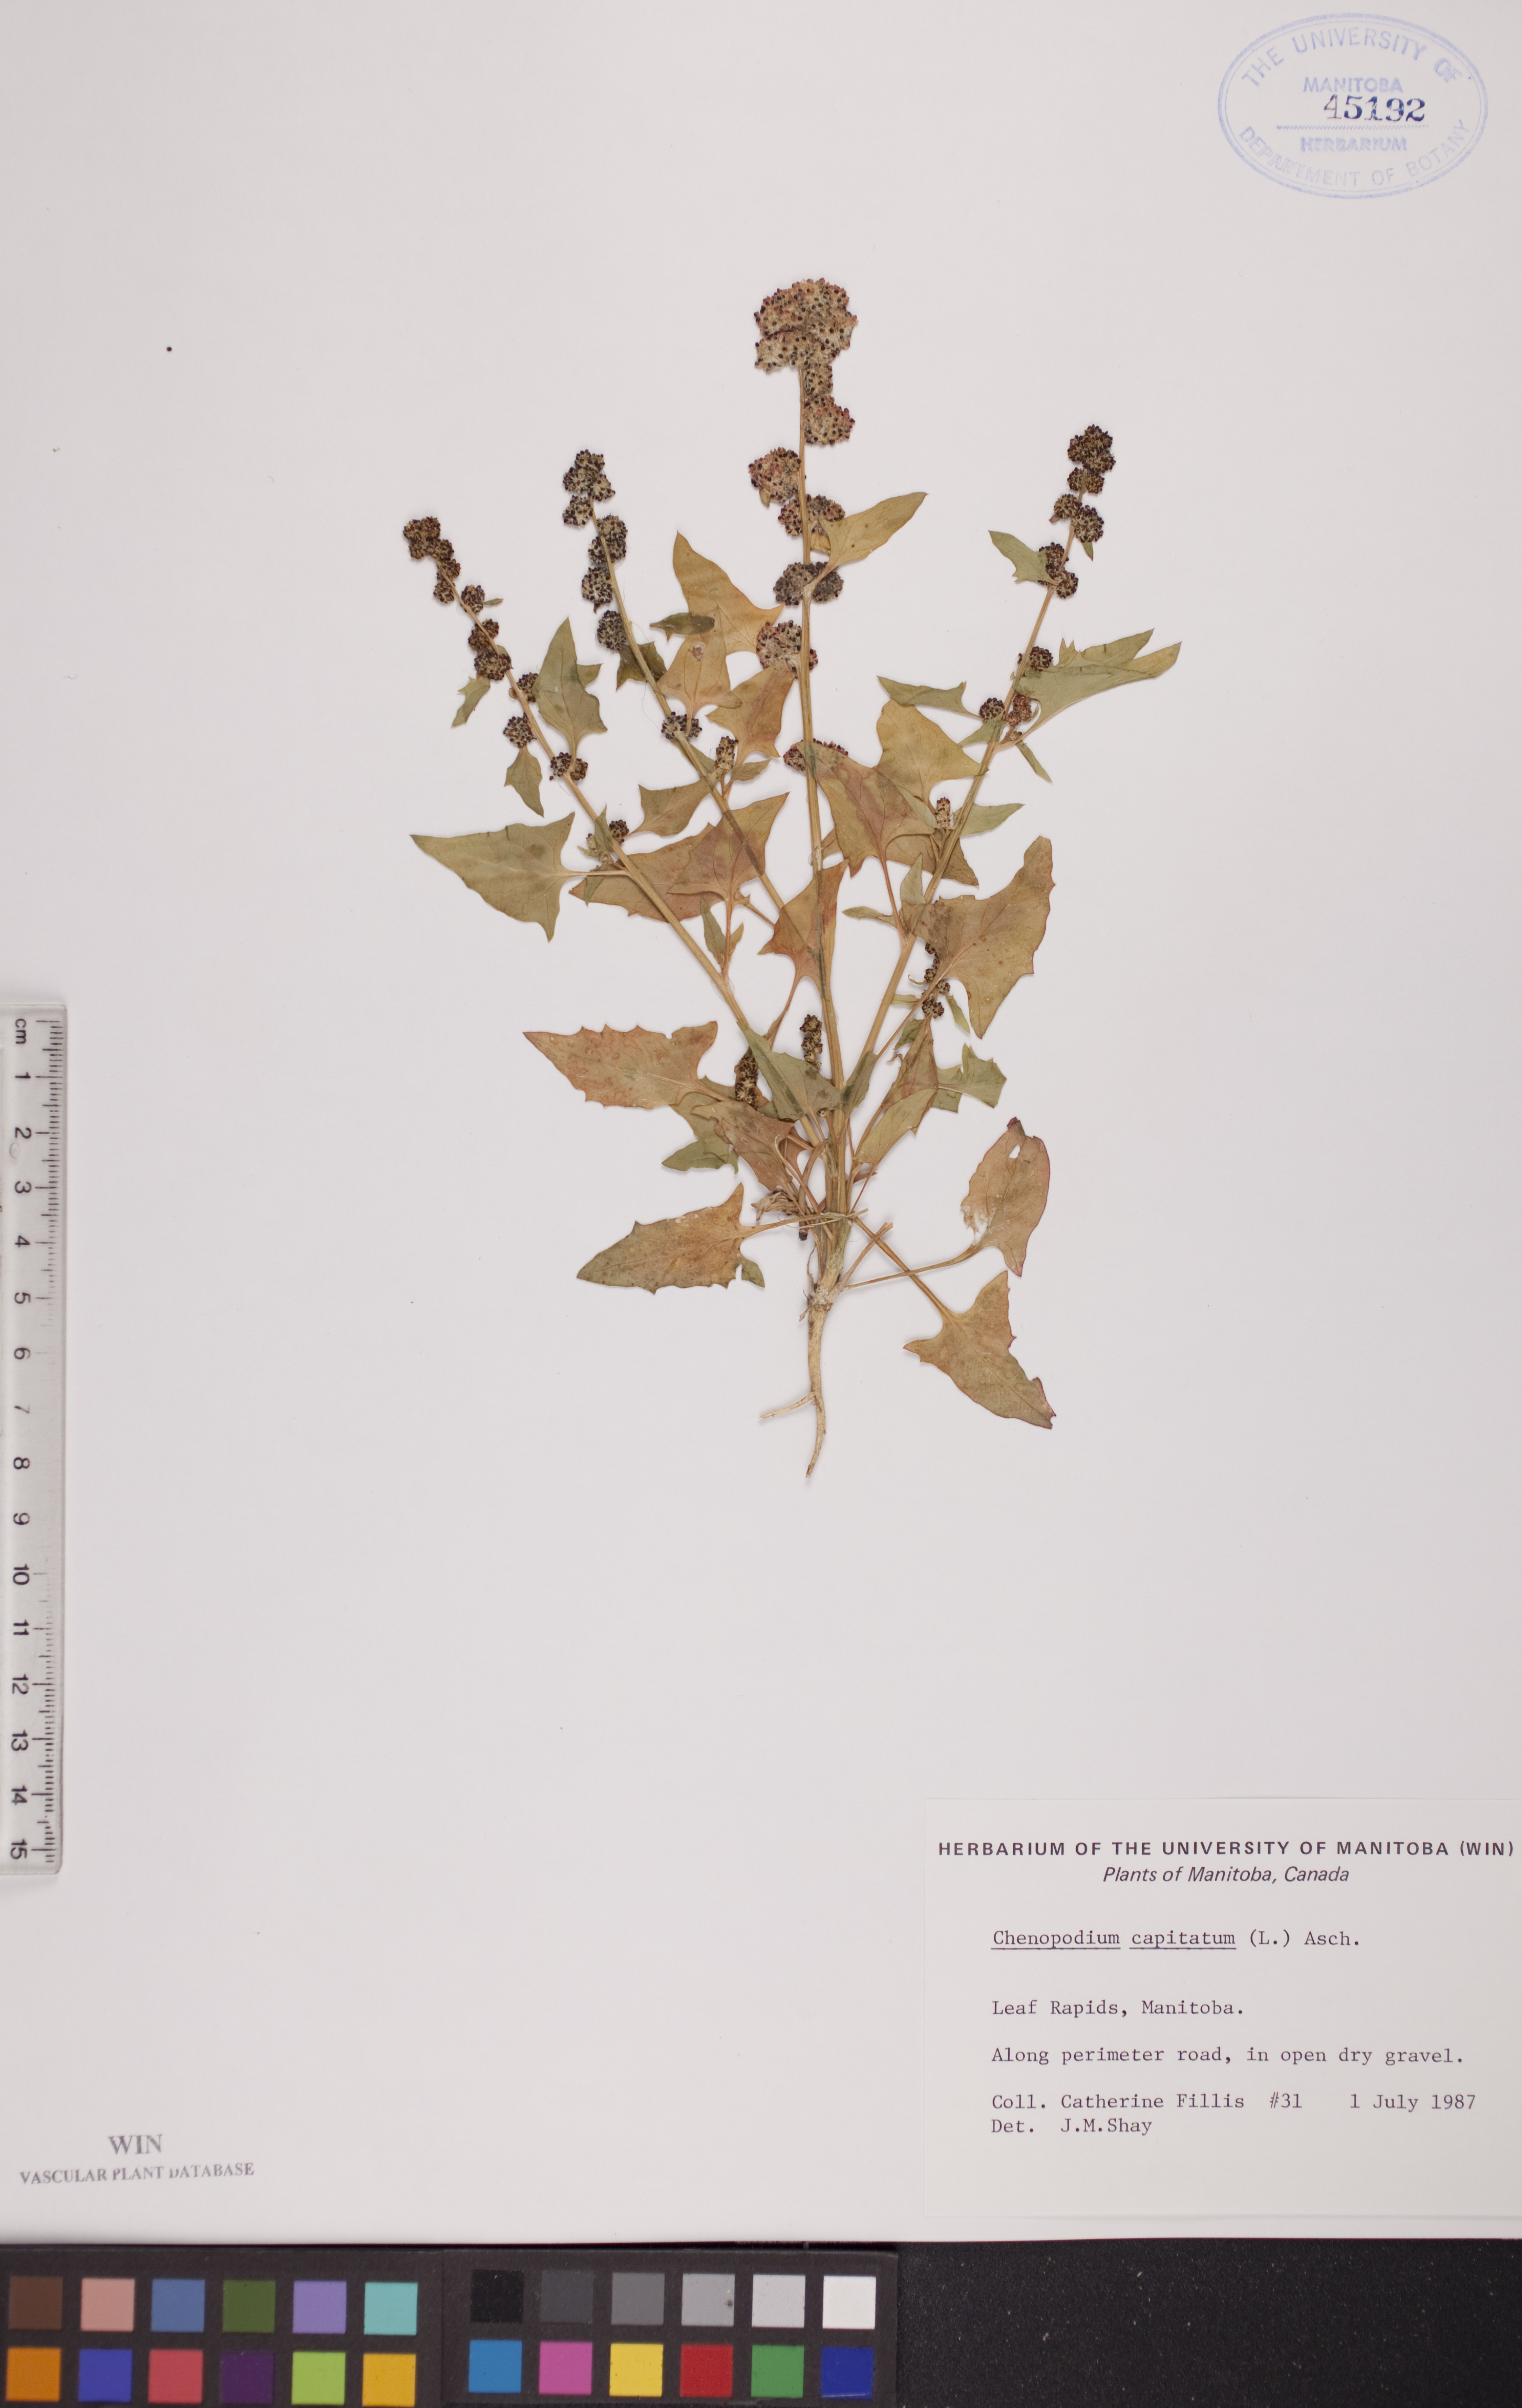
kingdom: Plantae
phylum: Tracheophyta
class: Magnoliopsida
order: Caryophyllales
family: Amaranthaceae
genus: Blitum
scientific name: Blitum capitatum
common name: Strawberry-blight
